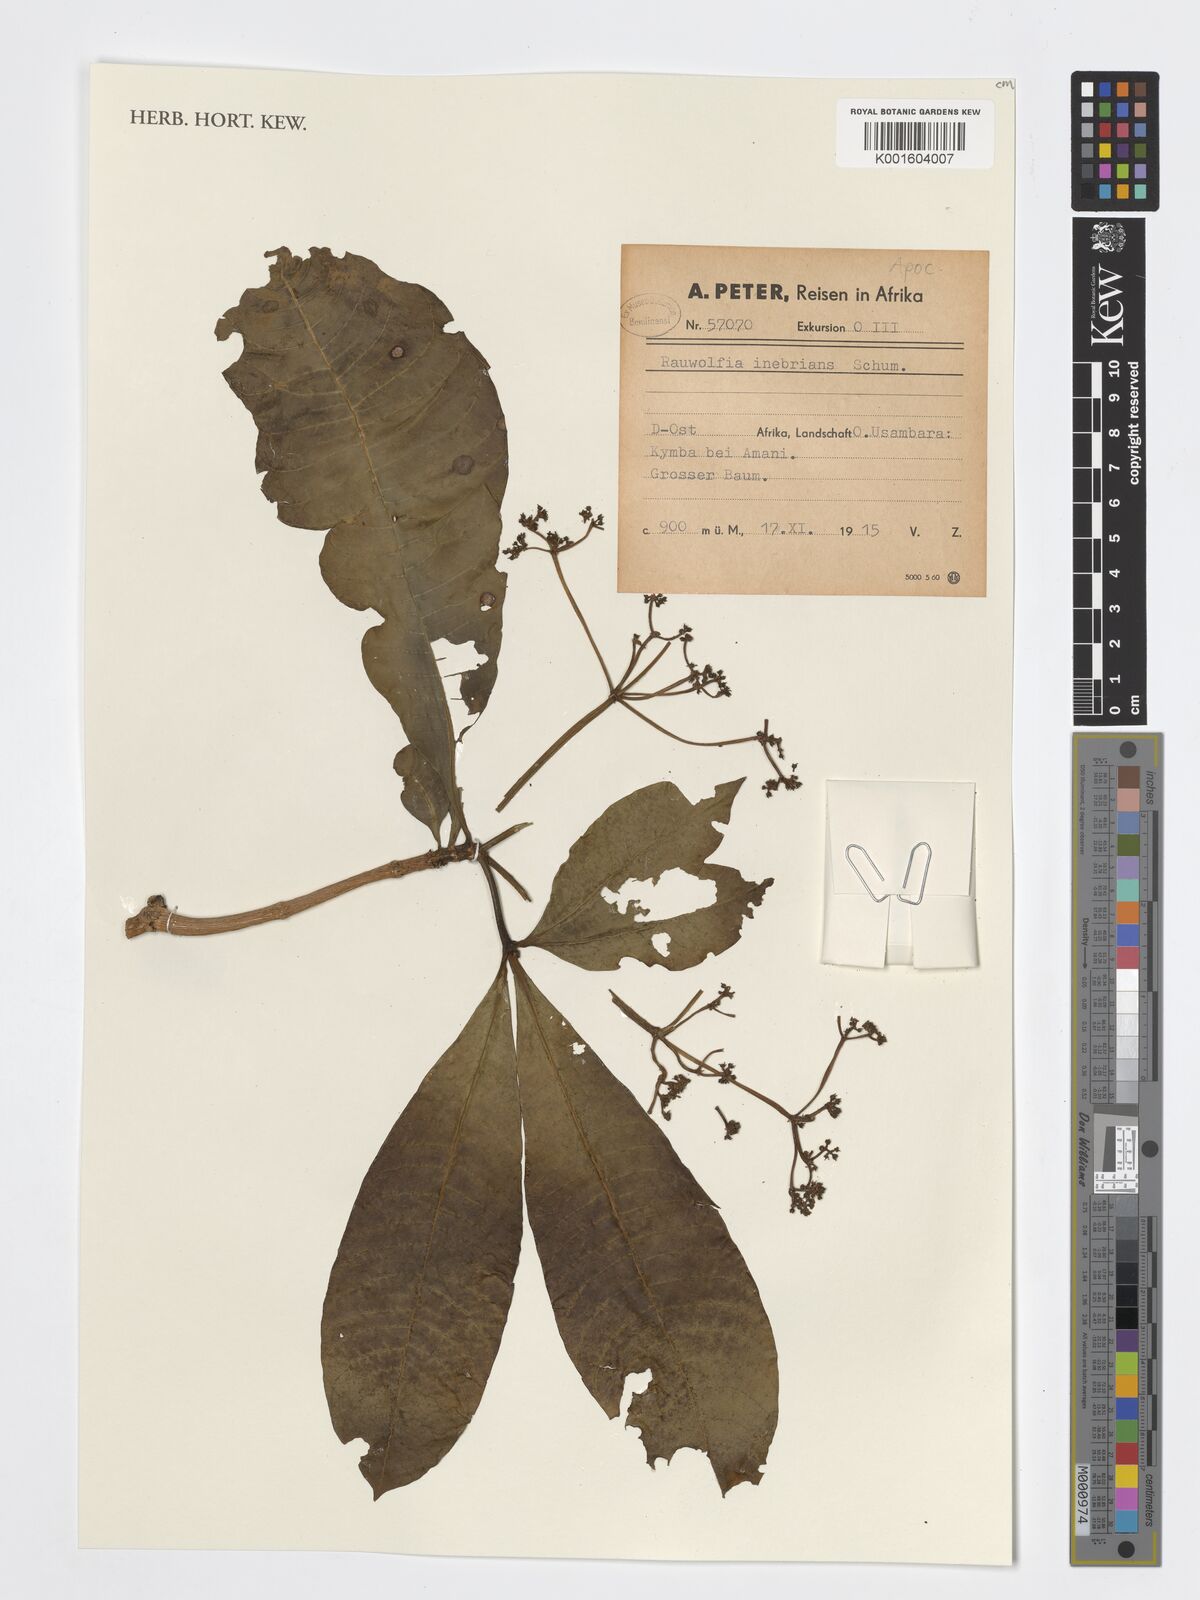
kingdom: Plantae
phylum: Tracheophyta
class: Magnoliopsida
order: Gentianales
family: Apocynaceae
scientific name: Apocynaceae
